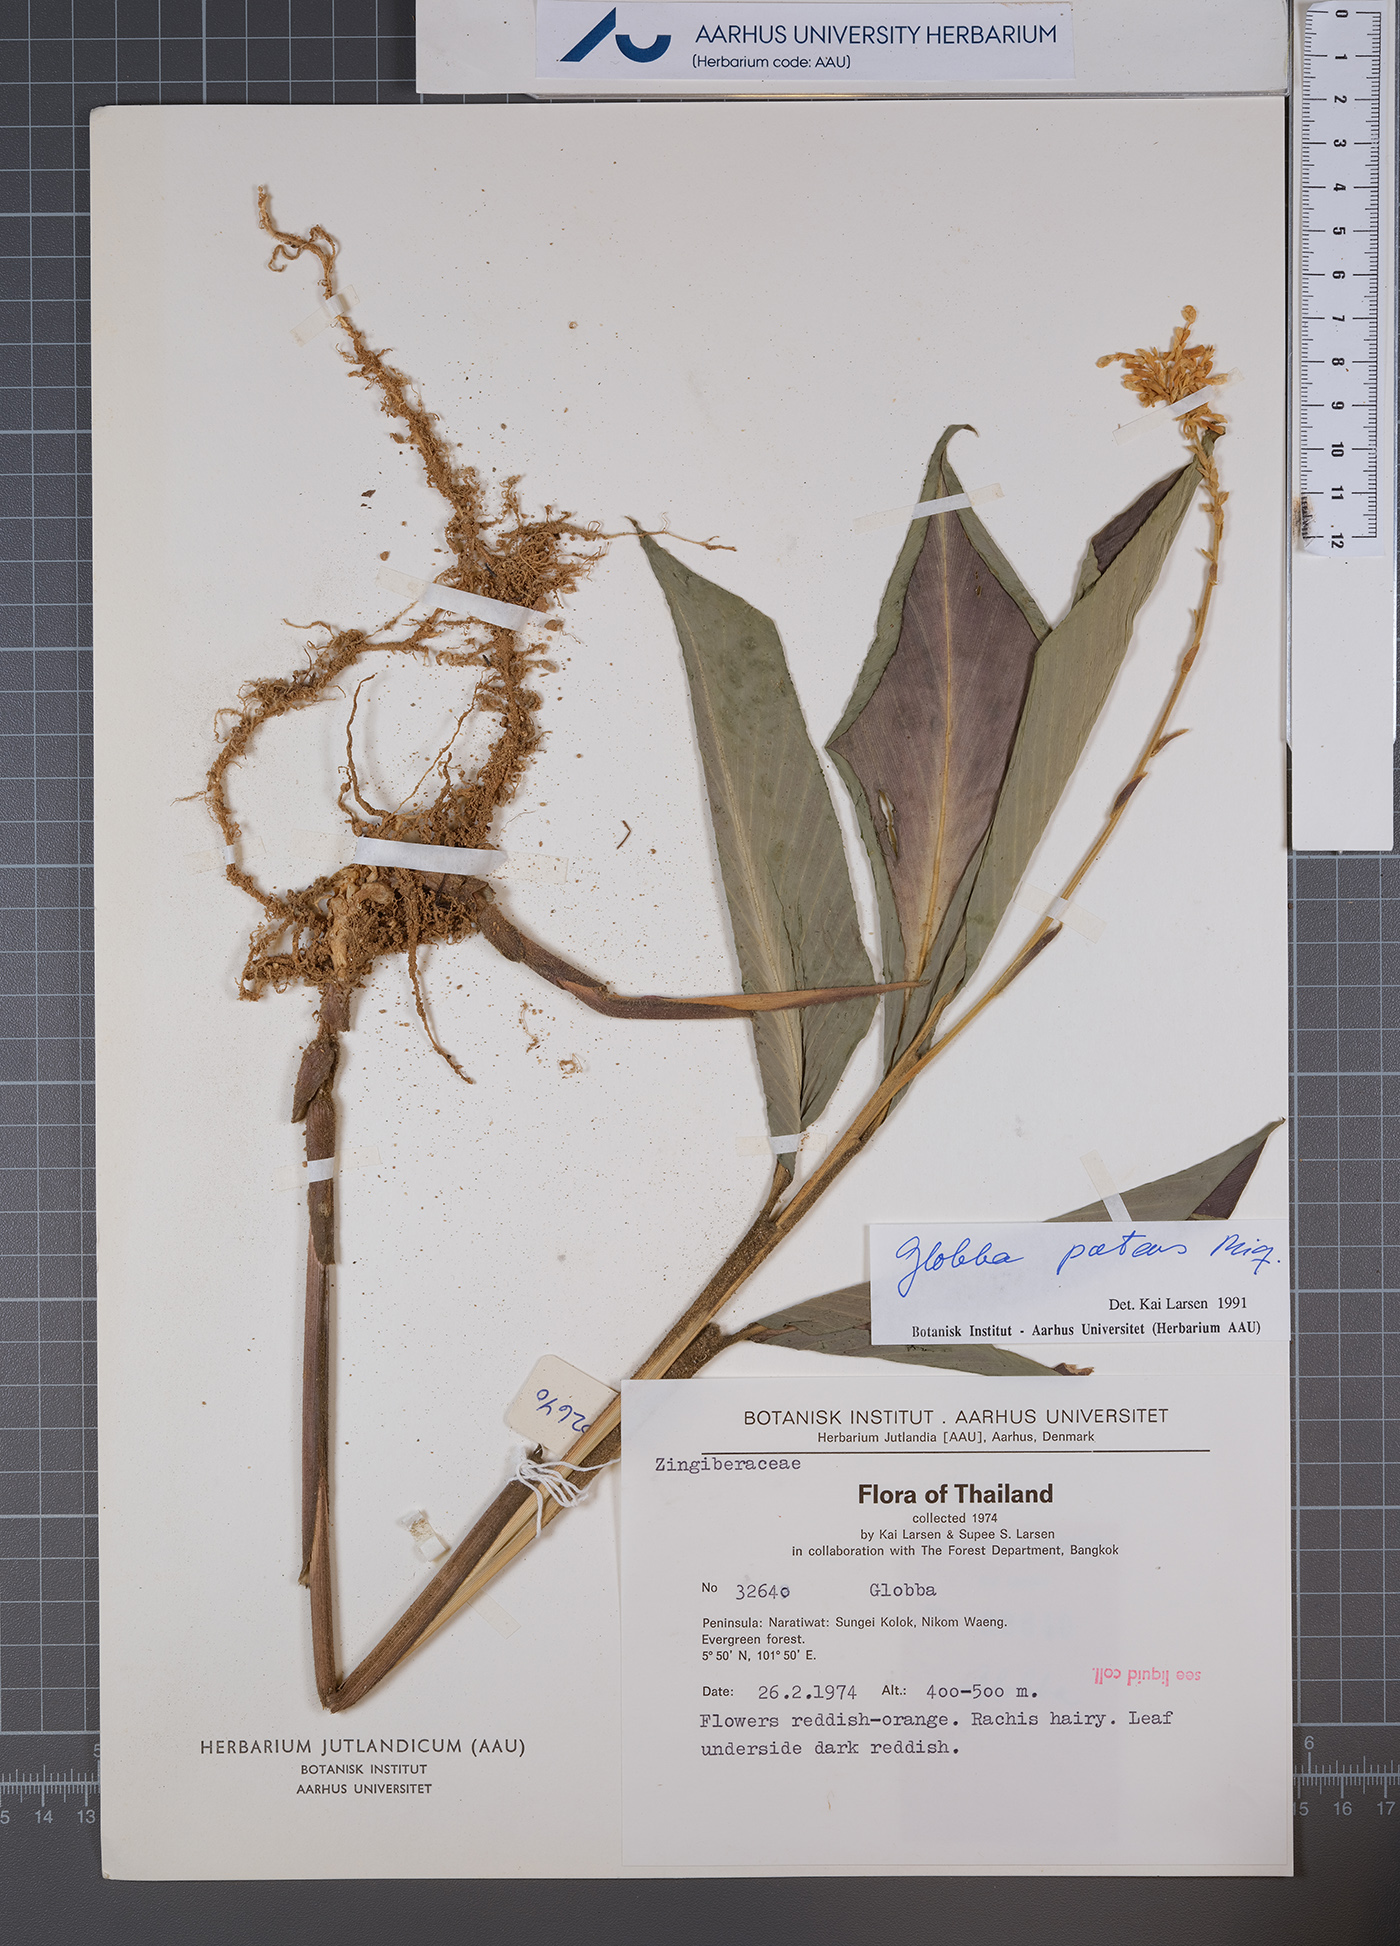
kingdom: Plantae
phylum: Tracheophyta
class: Liliopsida
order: Zingiberales
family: Zingiberaceae
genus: Globba
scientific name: Globba patens
